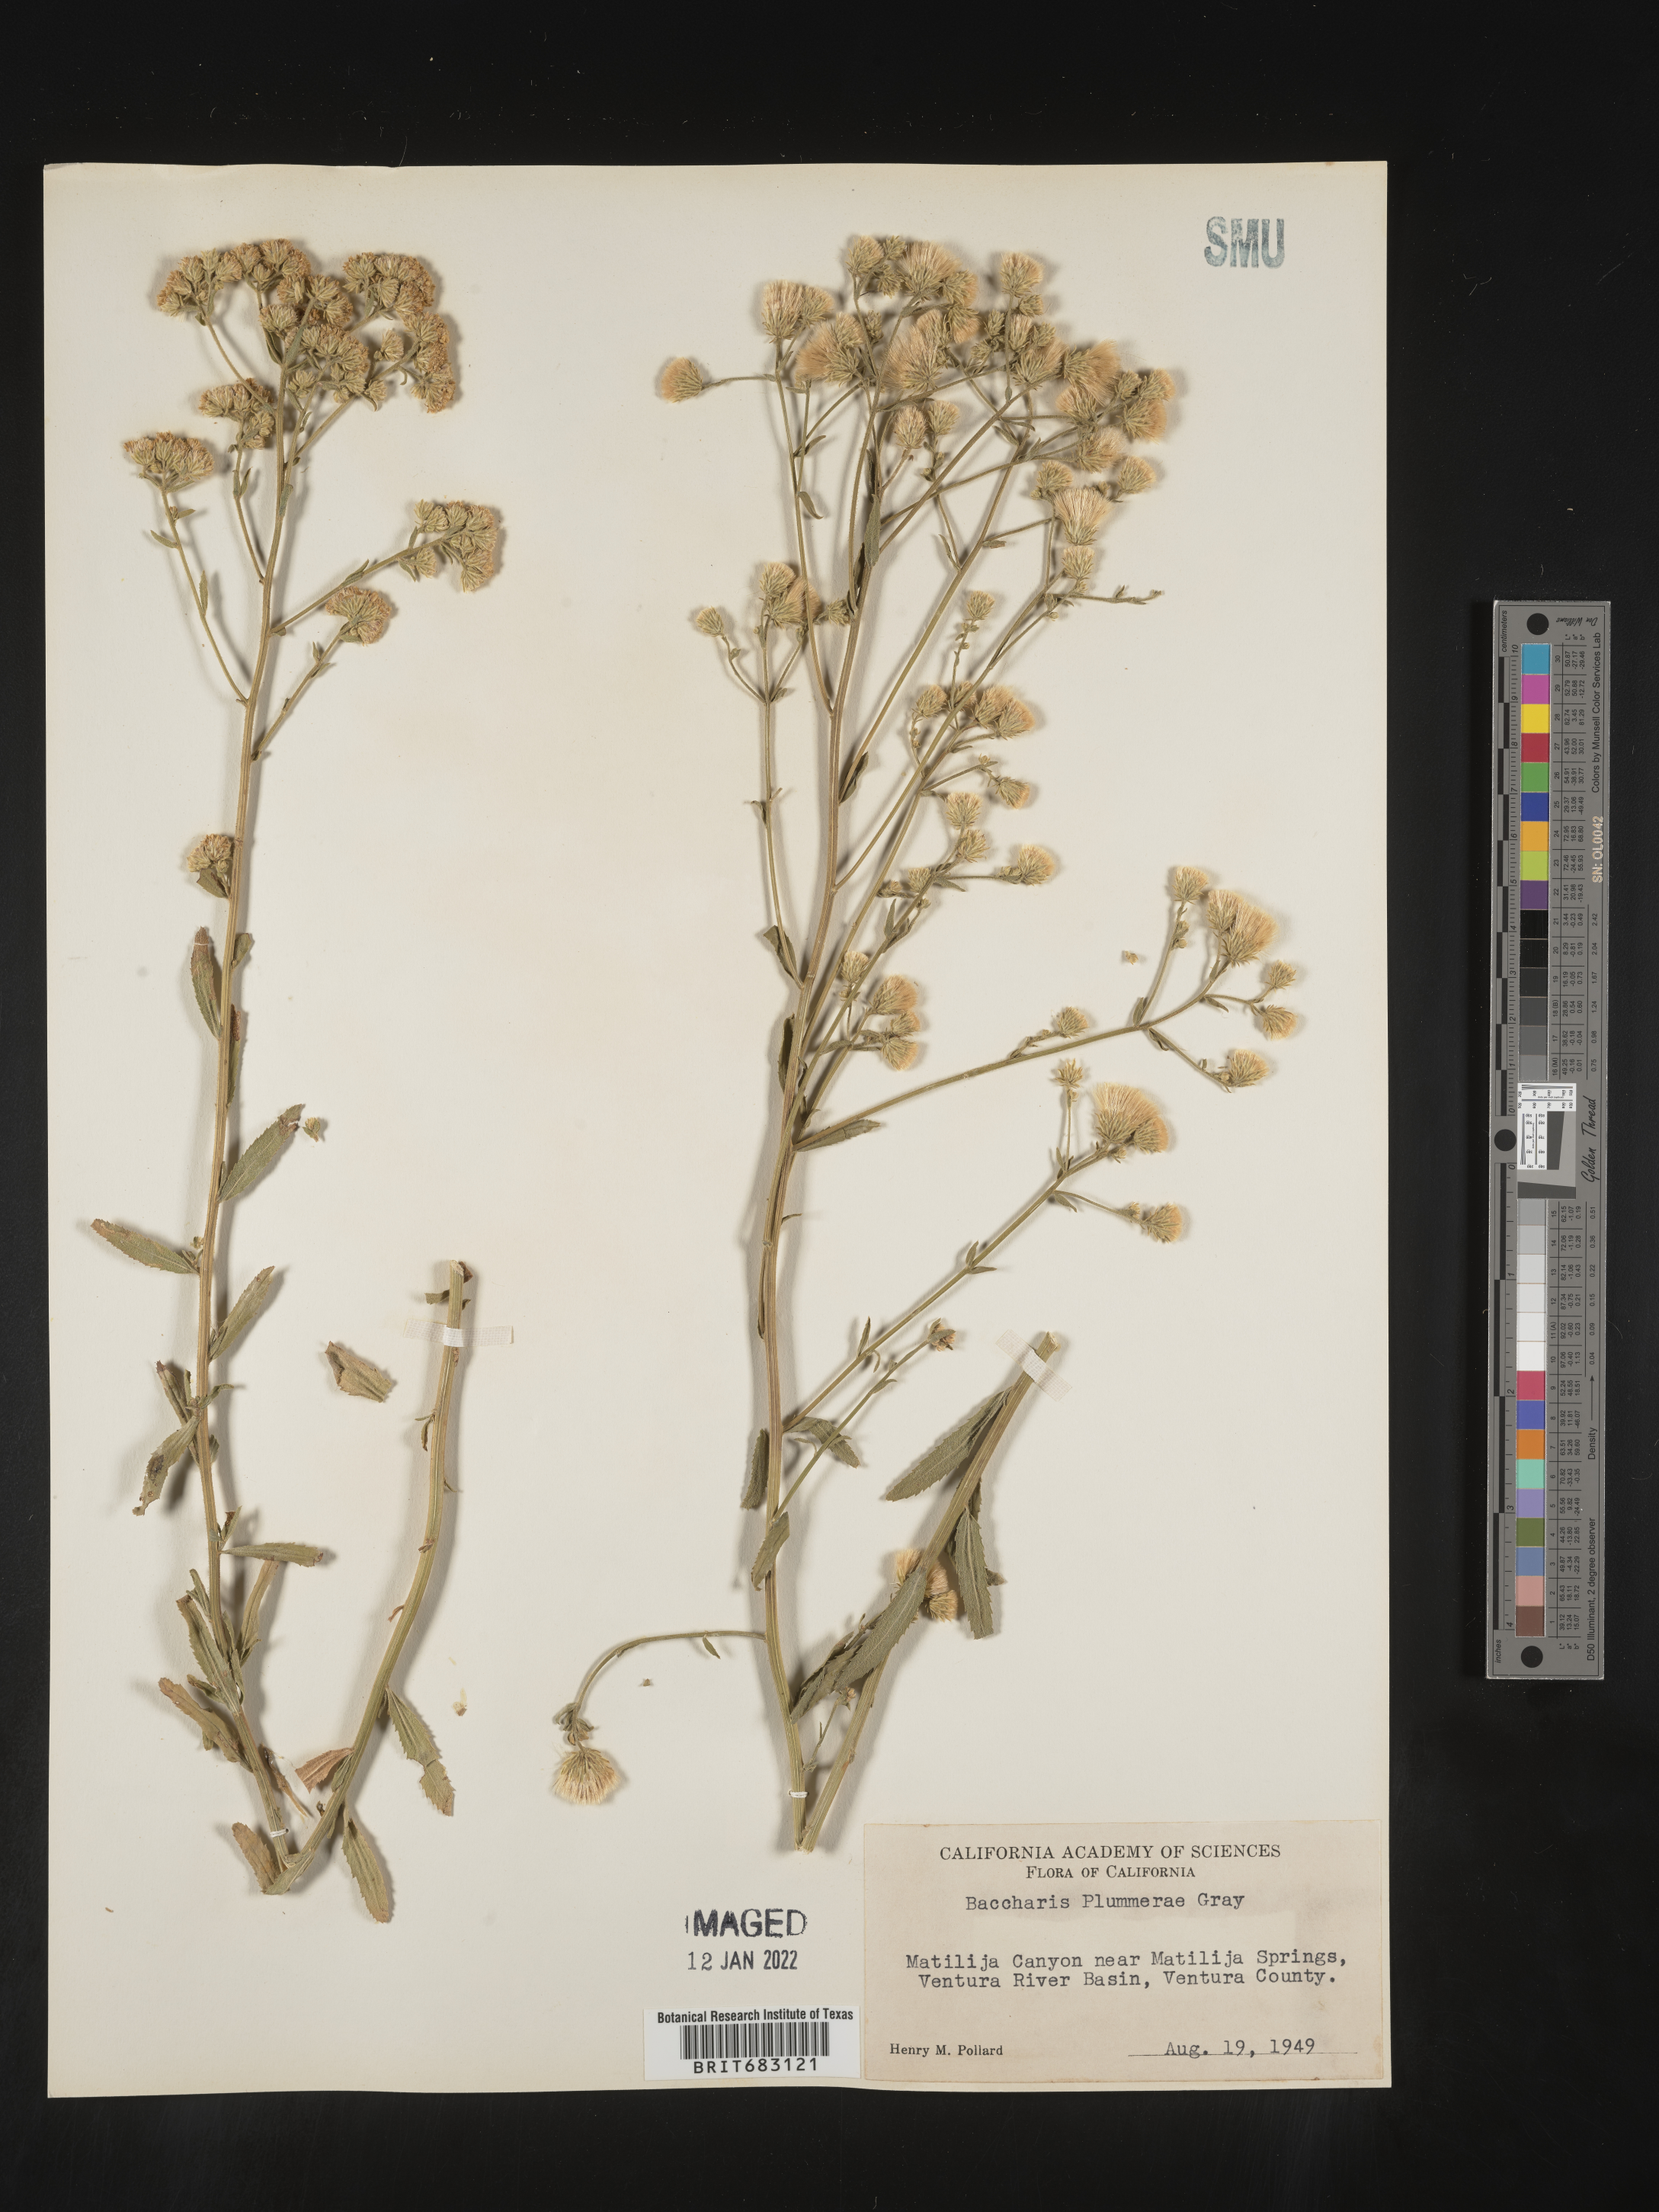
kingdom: Plantae
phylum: Tracheophyta
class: Magnoliopsida
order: Asterales
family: Asteraceae
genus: Baccharis
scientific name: Baccharis plummerae
